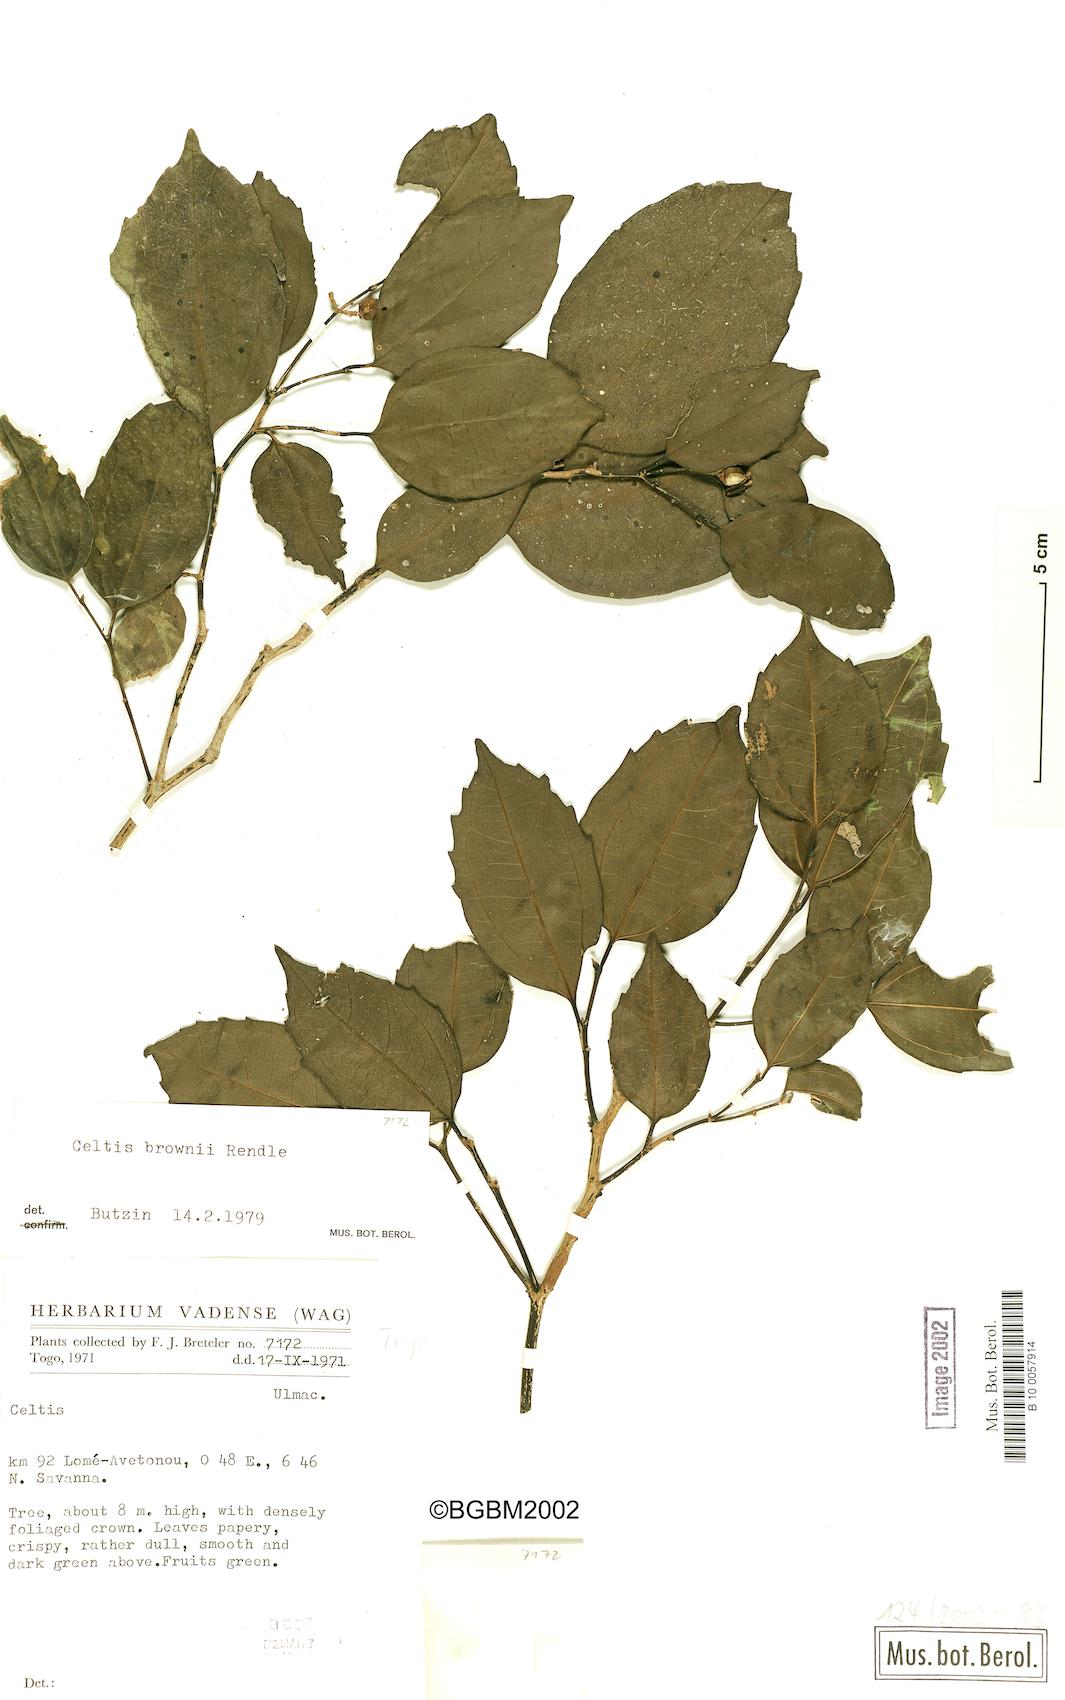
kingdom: Plantae
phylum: Tracheophyta
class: Magnoliopsida
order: Rosales
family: Cannabaceae
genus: Celtis
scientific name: Celtis philippensis
